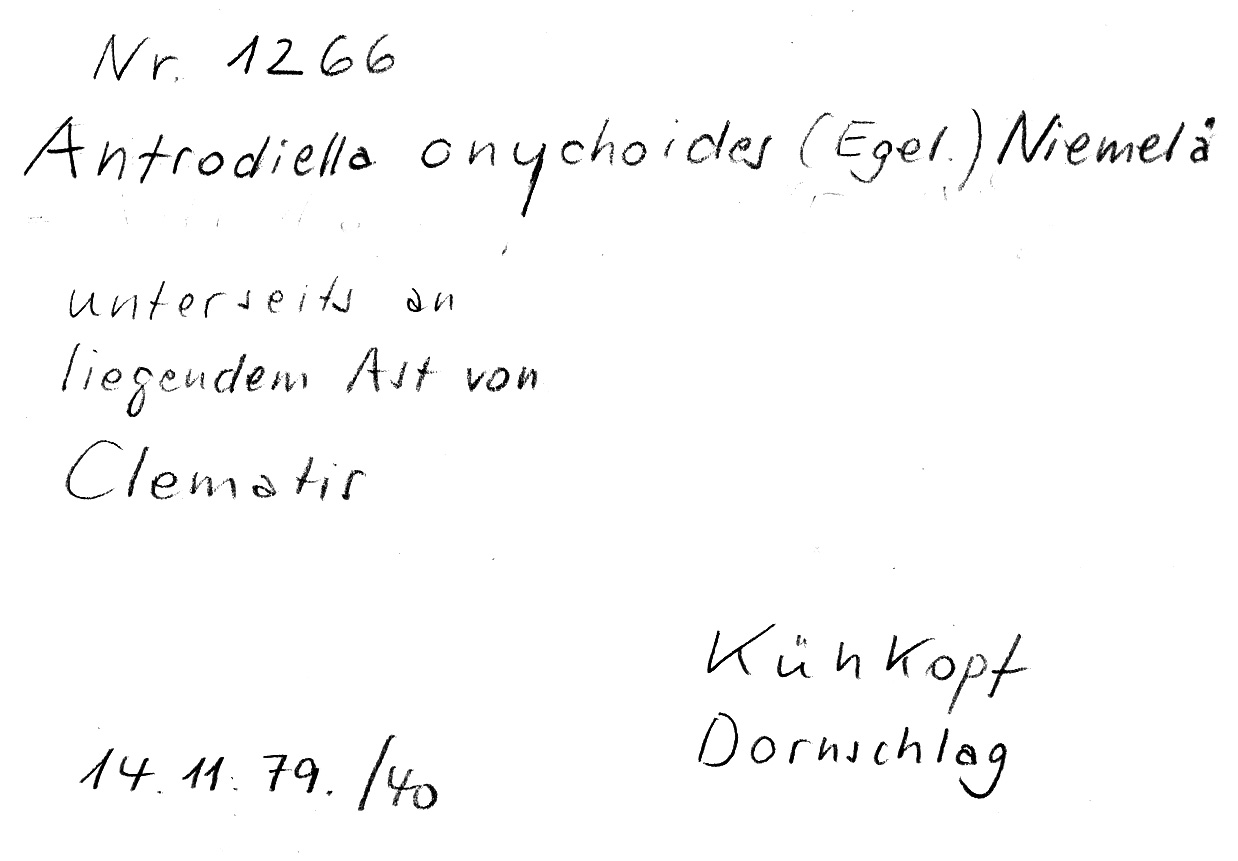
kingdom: Plantae
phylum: Tracheophyta
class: Magnoliopsida
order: Ranunculales
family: Ranunculaceae
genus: Clematis
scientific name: Clematis
